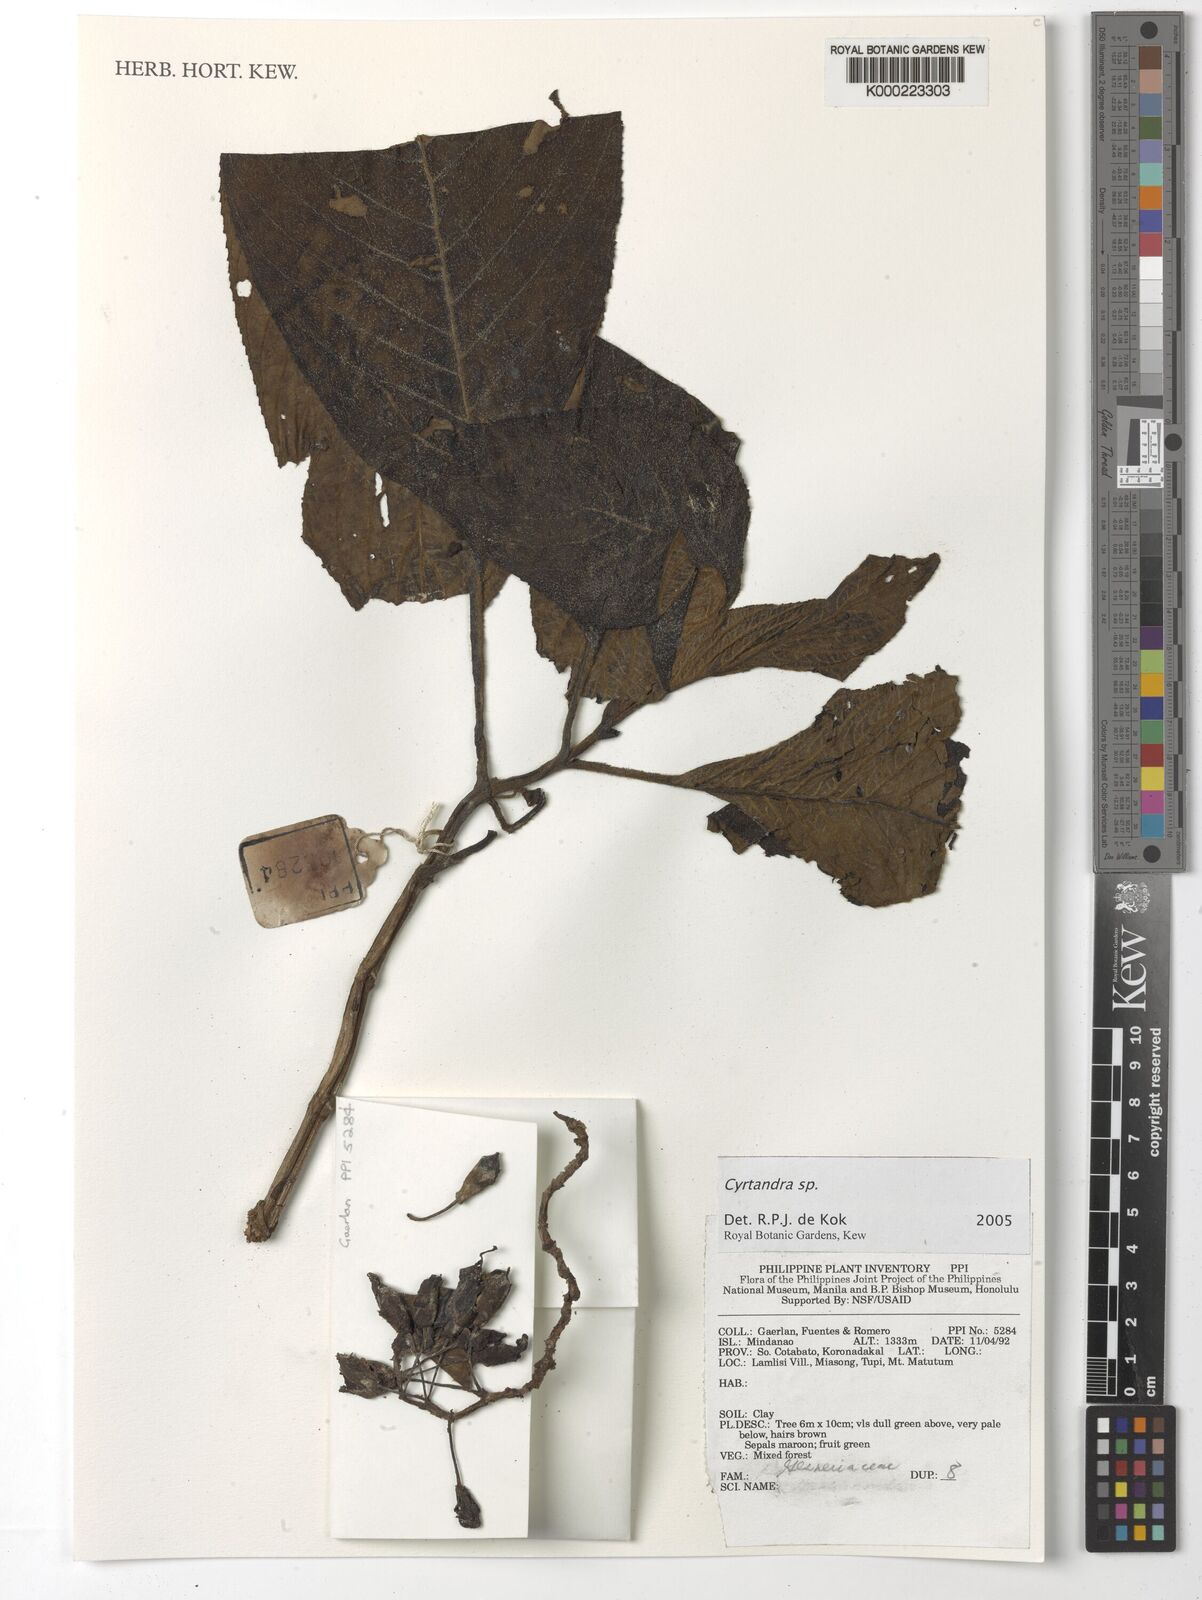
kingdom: Plantae
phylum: Tracheophyta
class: Magnoliopsida
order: Lamiales
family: Gesneriaceae
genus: Cyrtandra
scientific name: Cyrtandra
